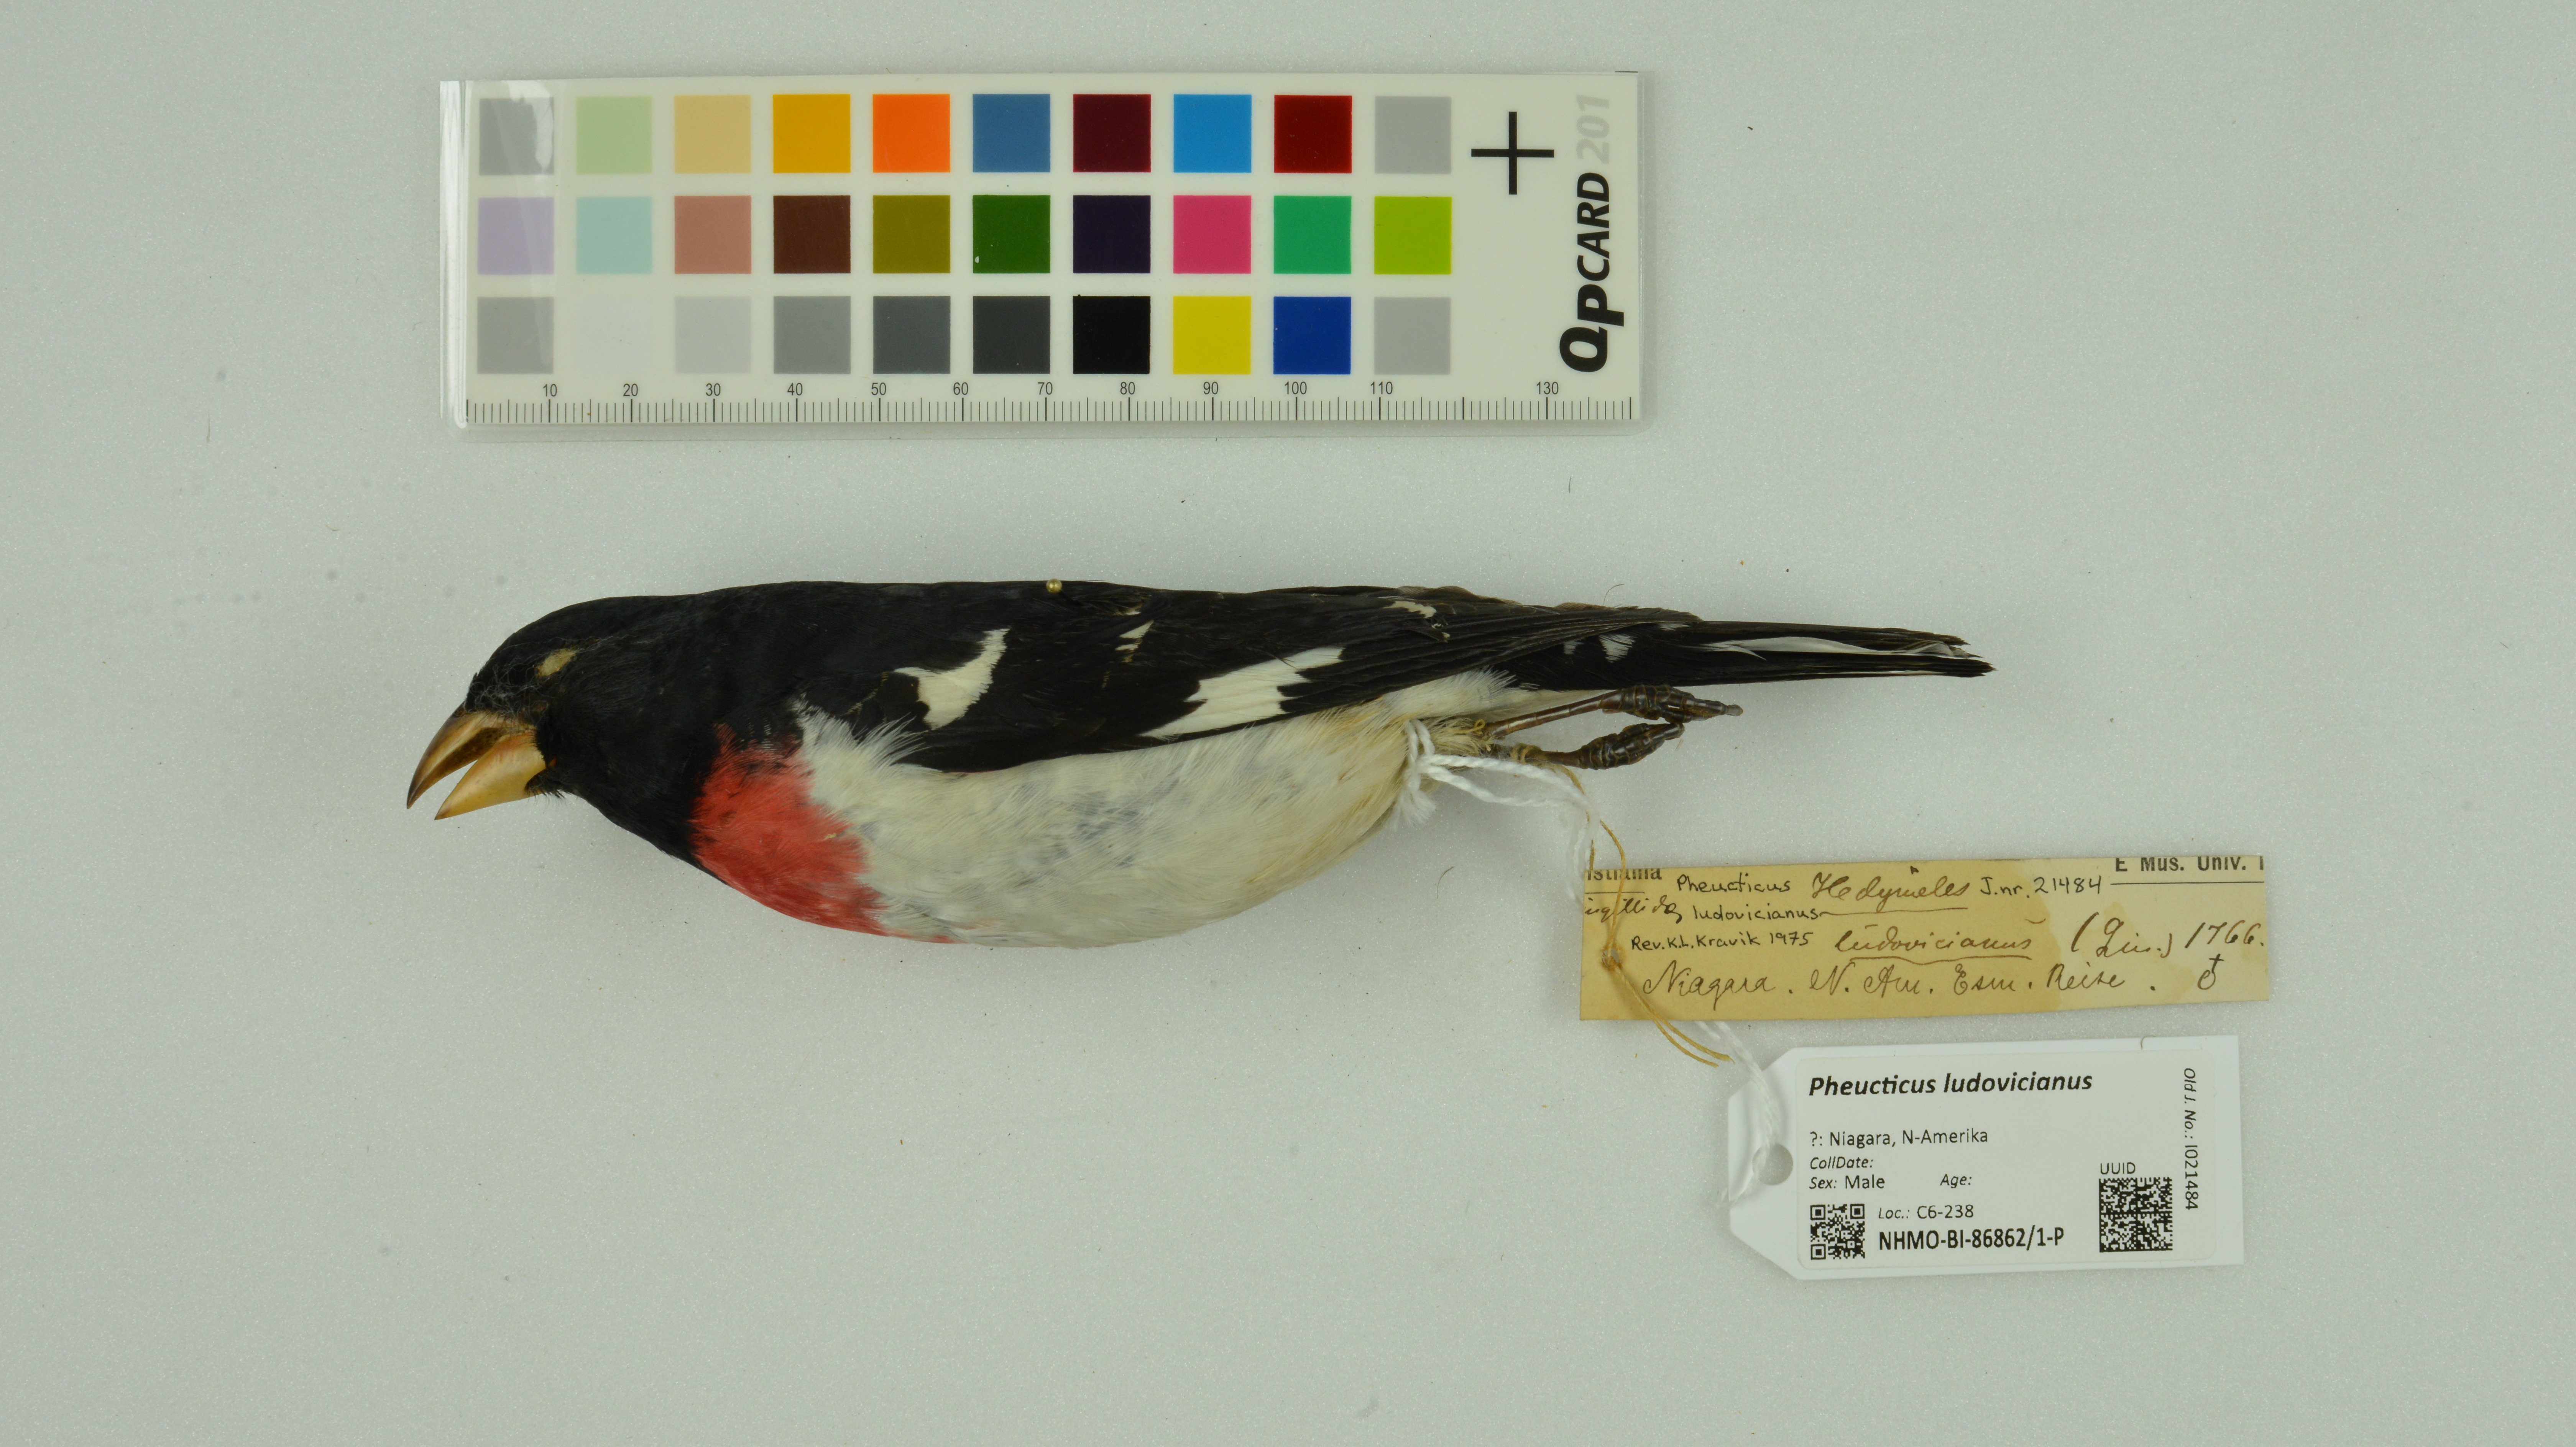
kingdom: Animalia
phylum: Chordata
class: Aves
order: Passeriformes
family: Cardinalidae
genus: Pheucticus
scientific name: Pheucticus ludovicianus
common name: Rose-breasted grosbeak
